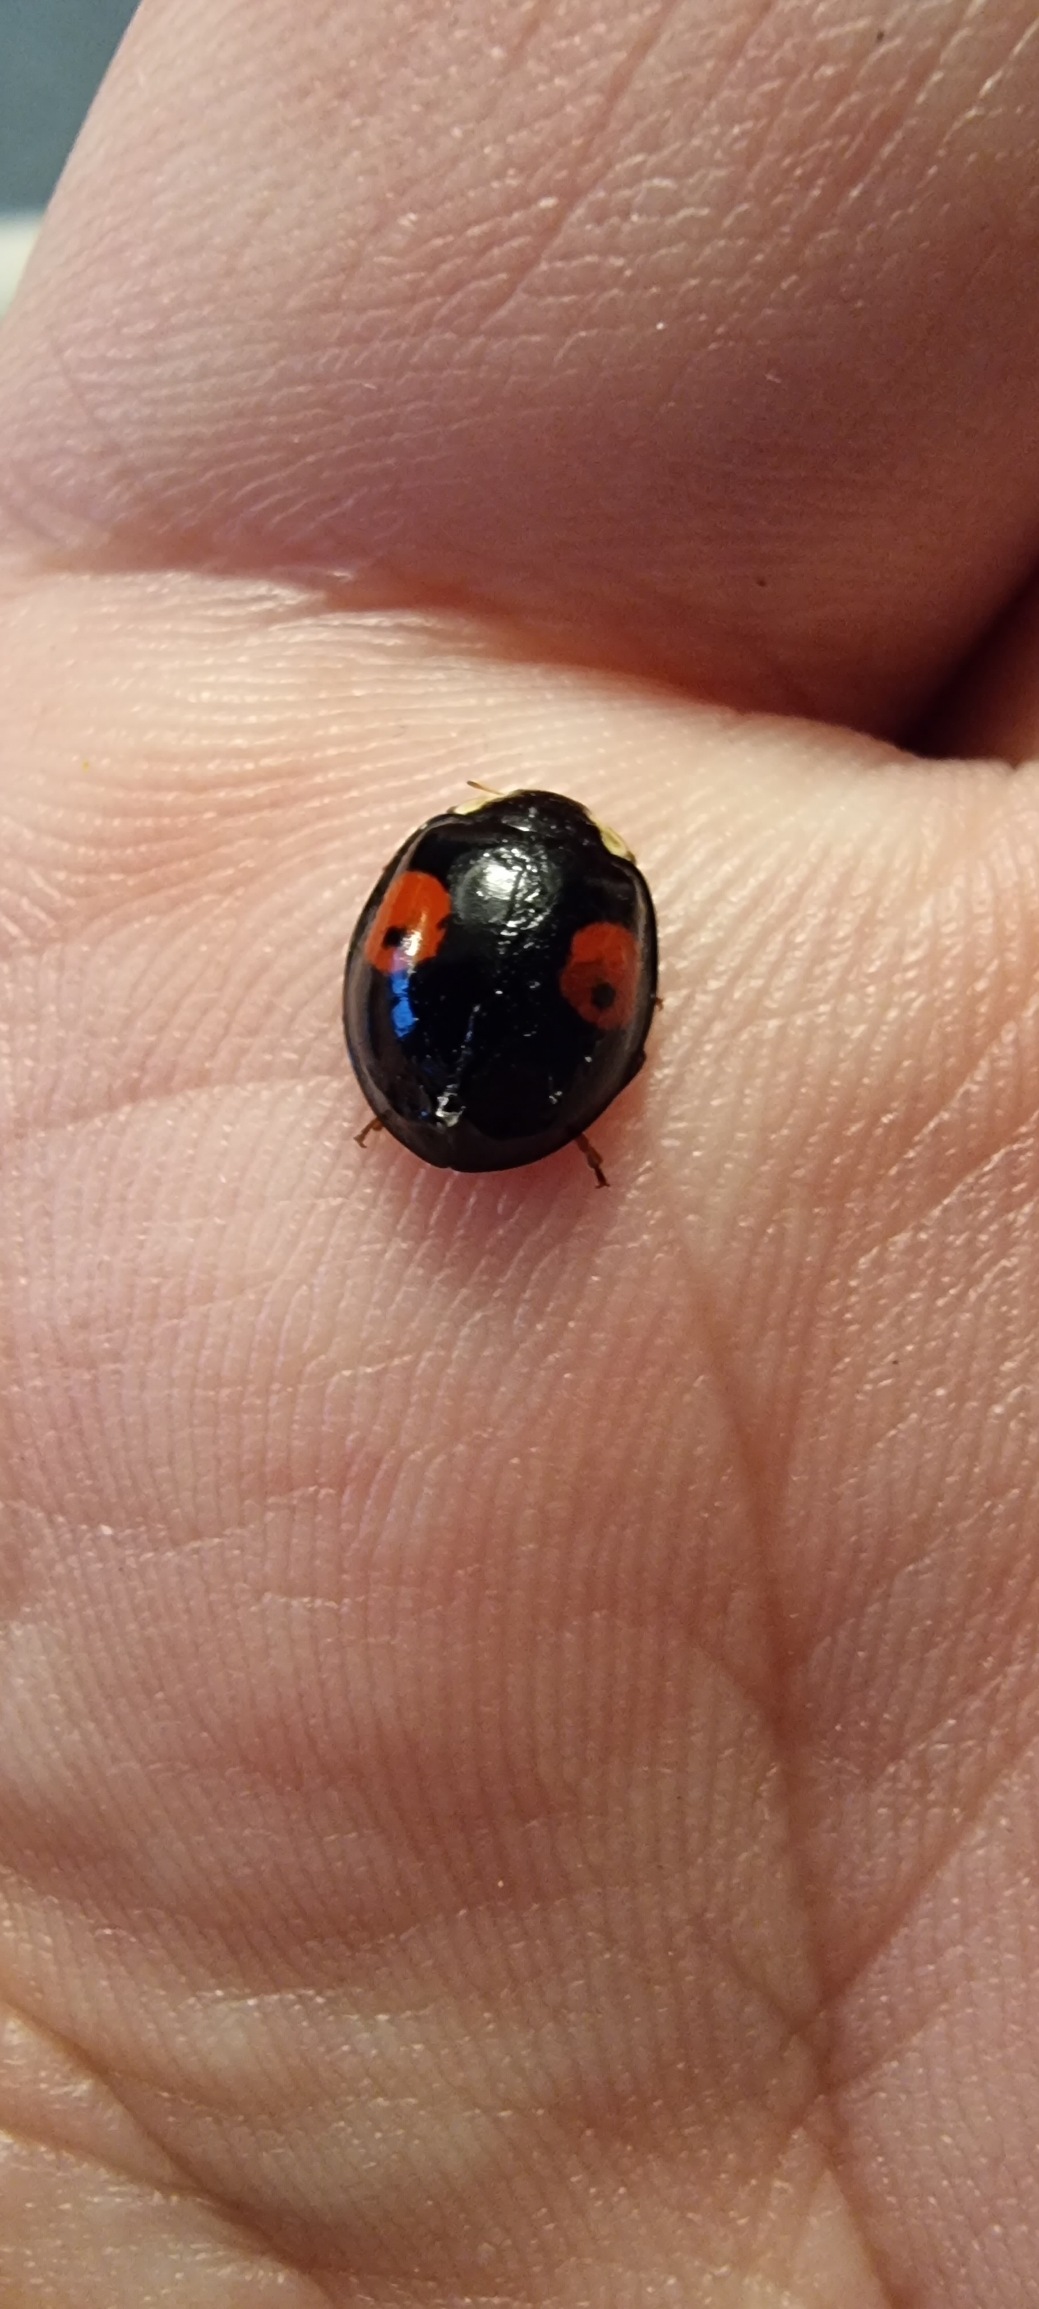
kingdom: Animalia
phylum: Arthropoda
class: Insecta
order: Coleoptera
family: Coccinellidae
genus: Harmonia
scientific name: Harmonia axyridis
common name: Harlekinmariehøne
